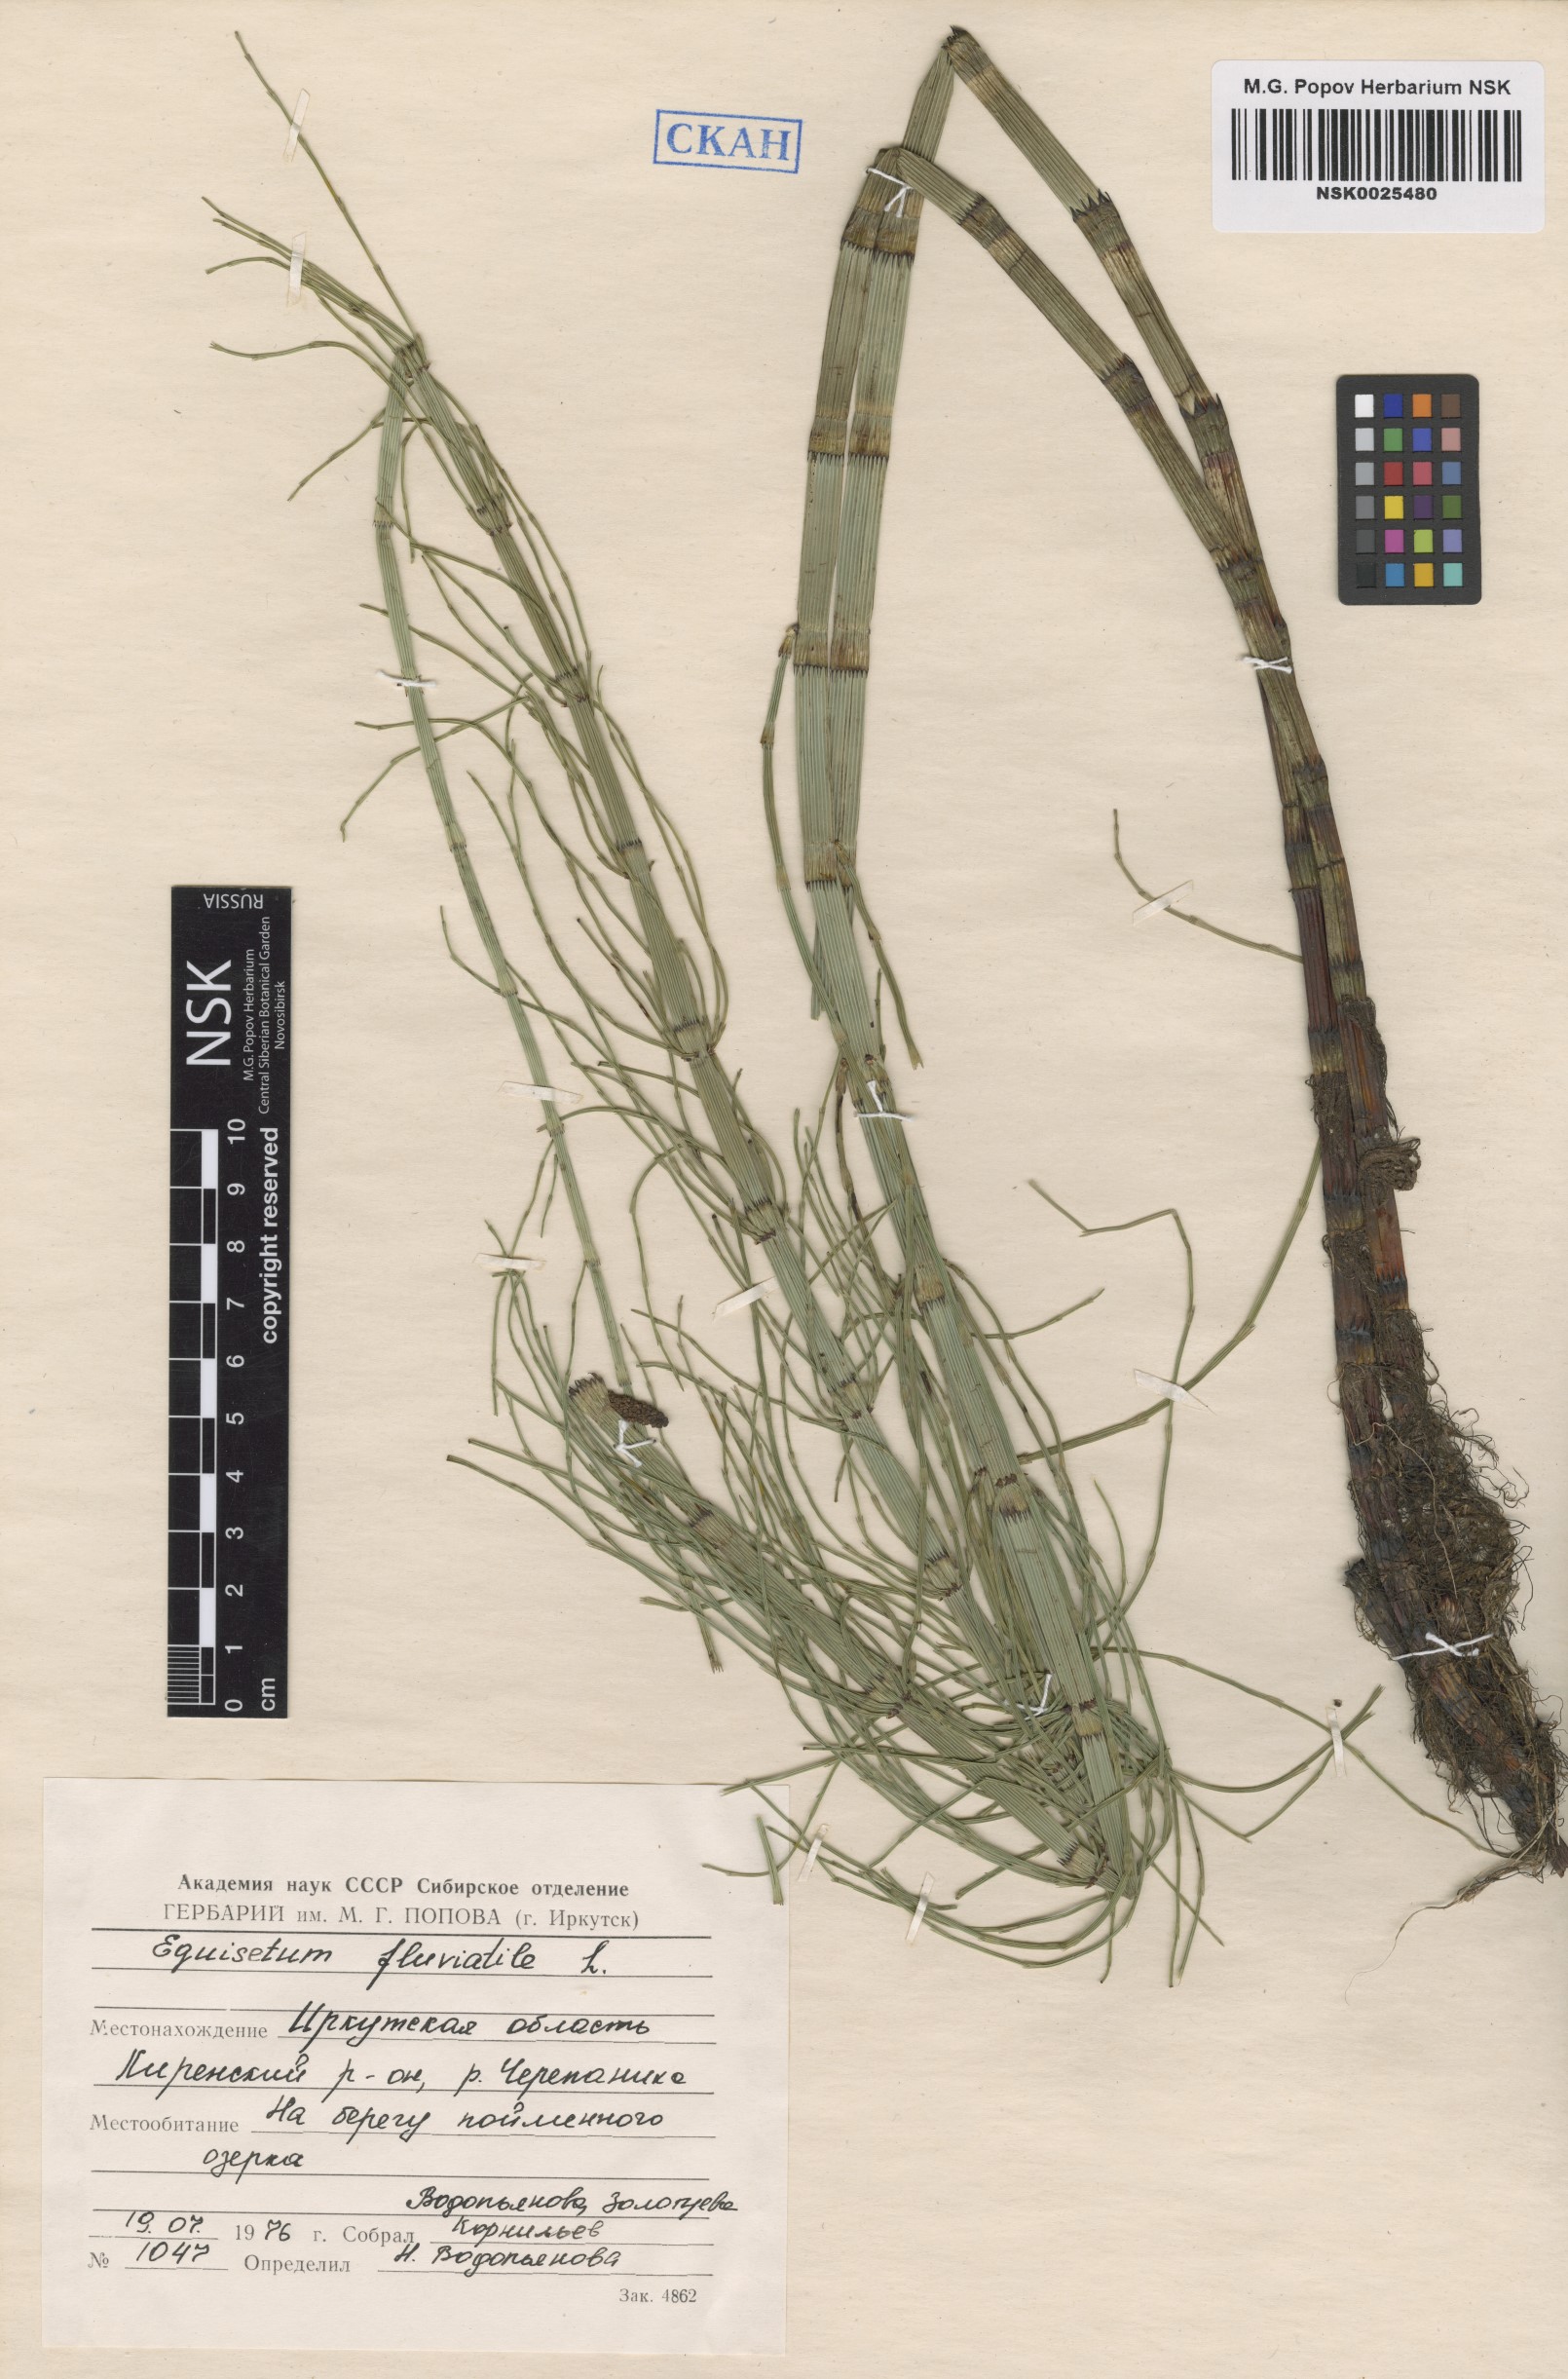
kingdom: Plantae
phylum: Tracheophyta
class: Polypodiopsida
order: Equisetales
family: Equisetaceae
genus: Equisetum
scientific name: Equisetum fluviatile
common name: Water horsetail
